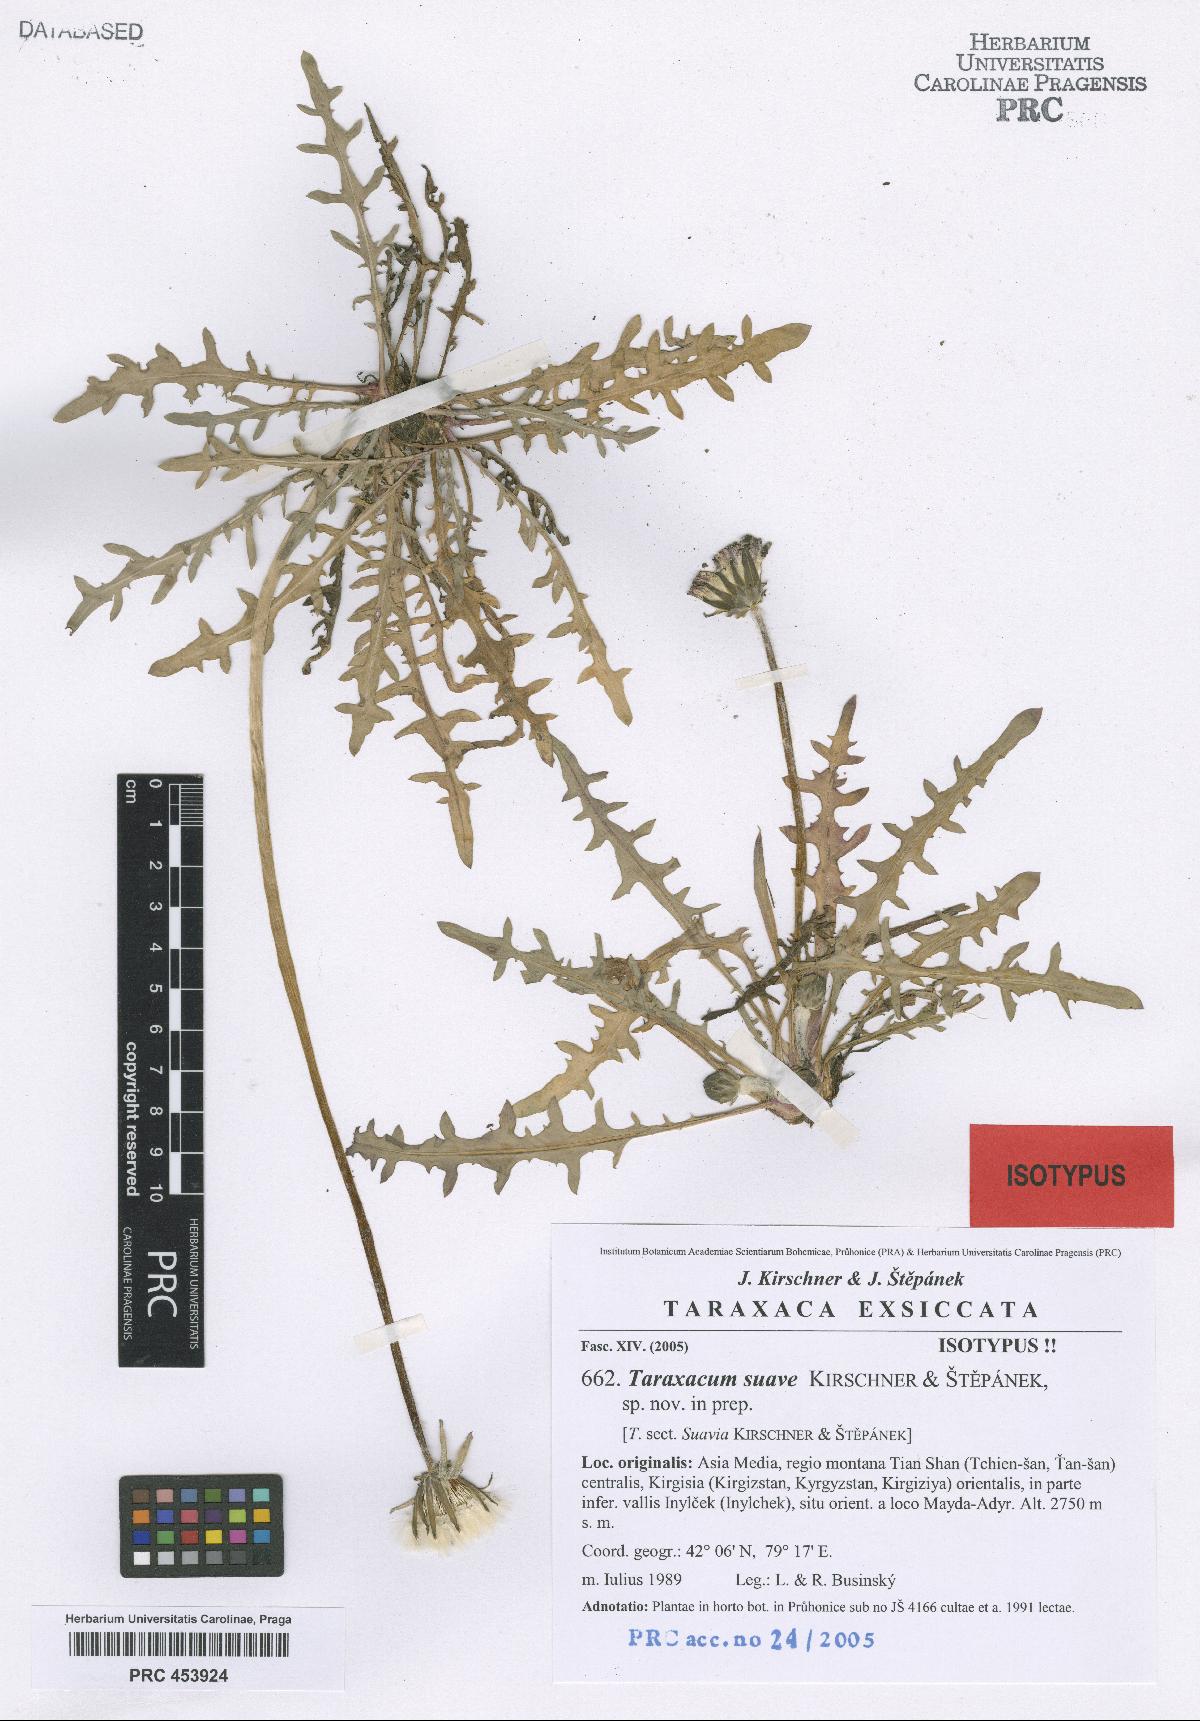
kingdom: Plantae
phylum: Tracheophyta
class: Magnoliopsida
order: Asterales
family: Asteraceae
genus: Taraxacum
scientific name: Taraxacum suave
